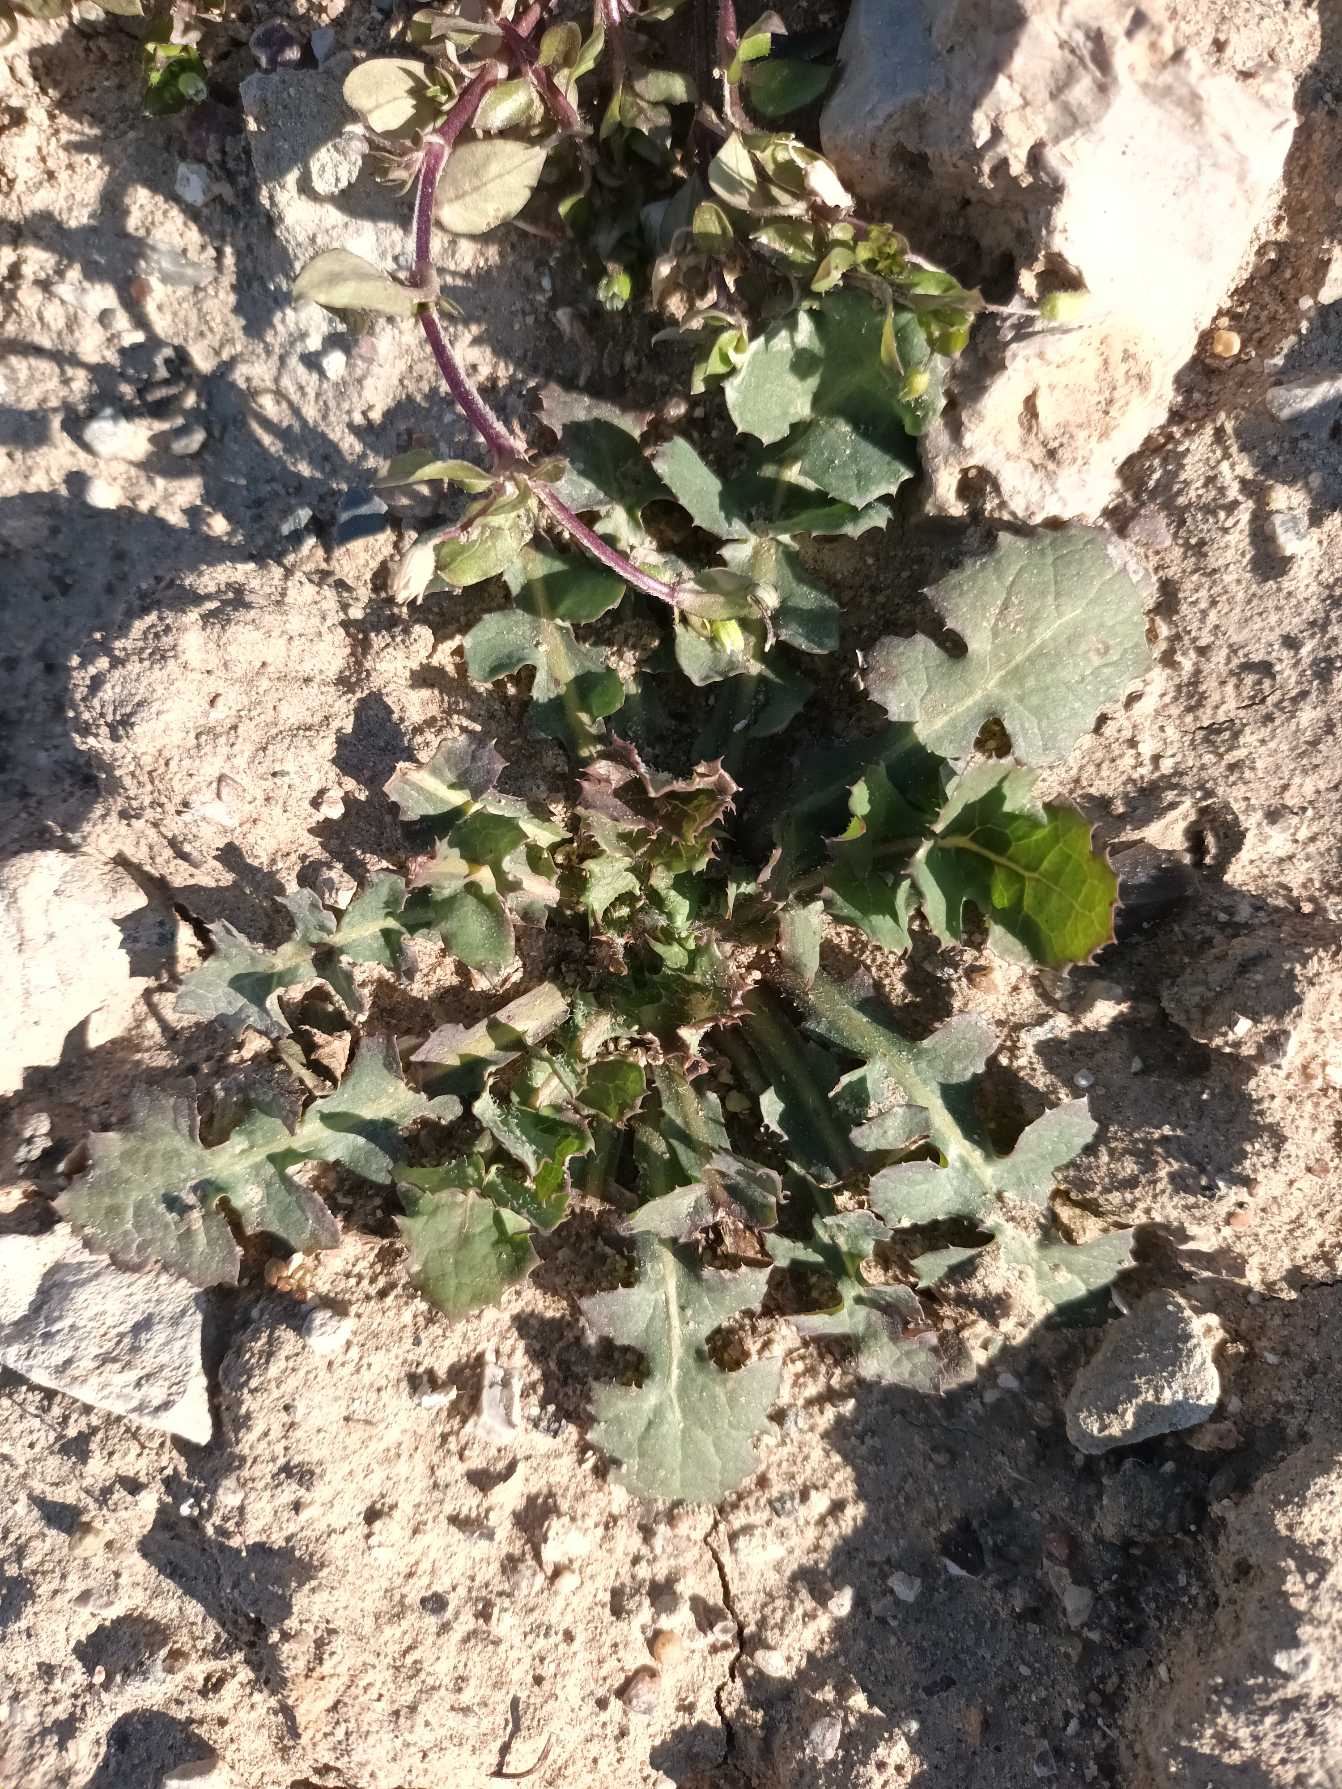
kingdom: Plantae
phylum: Tracheophyta
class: Magnoliopsida
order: Asterales
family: Asteraceae
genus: Sonchus
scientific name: Sonchus oleraceus
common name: Almindelig svinemælk
